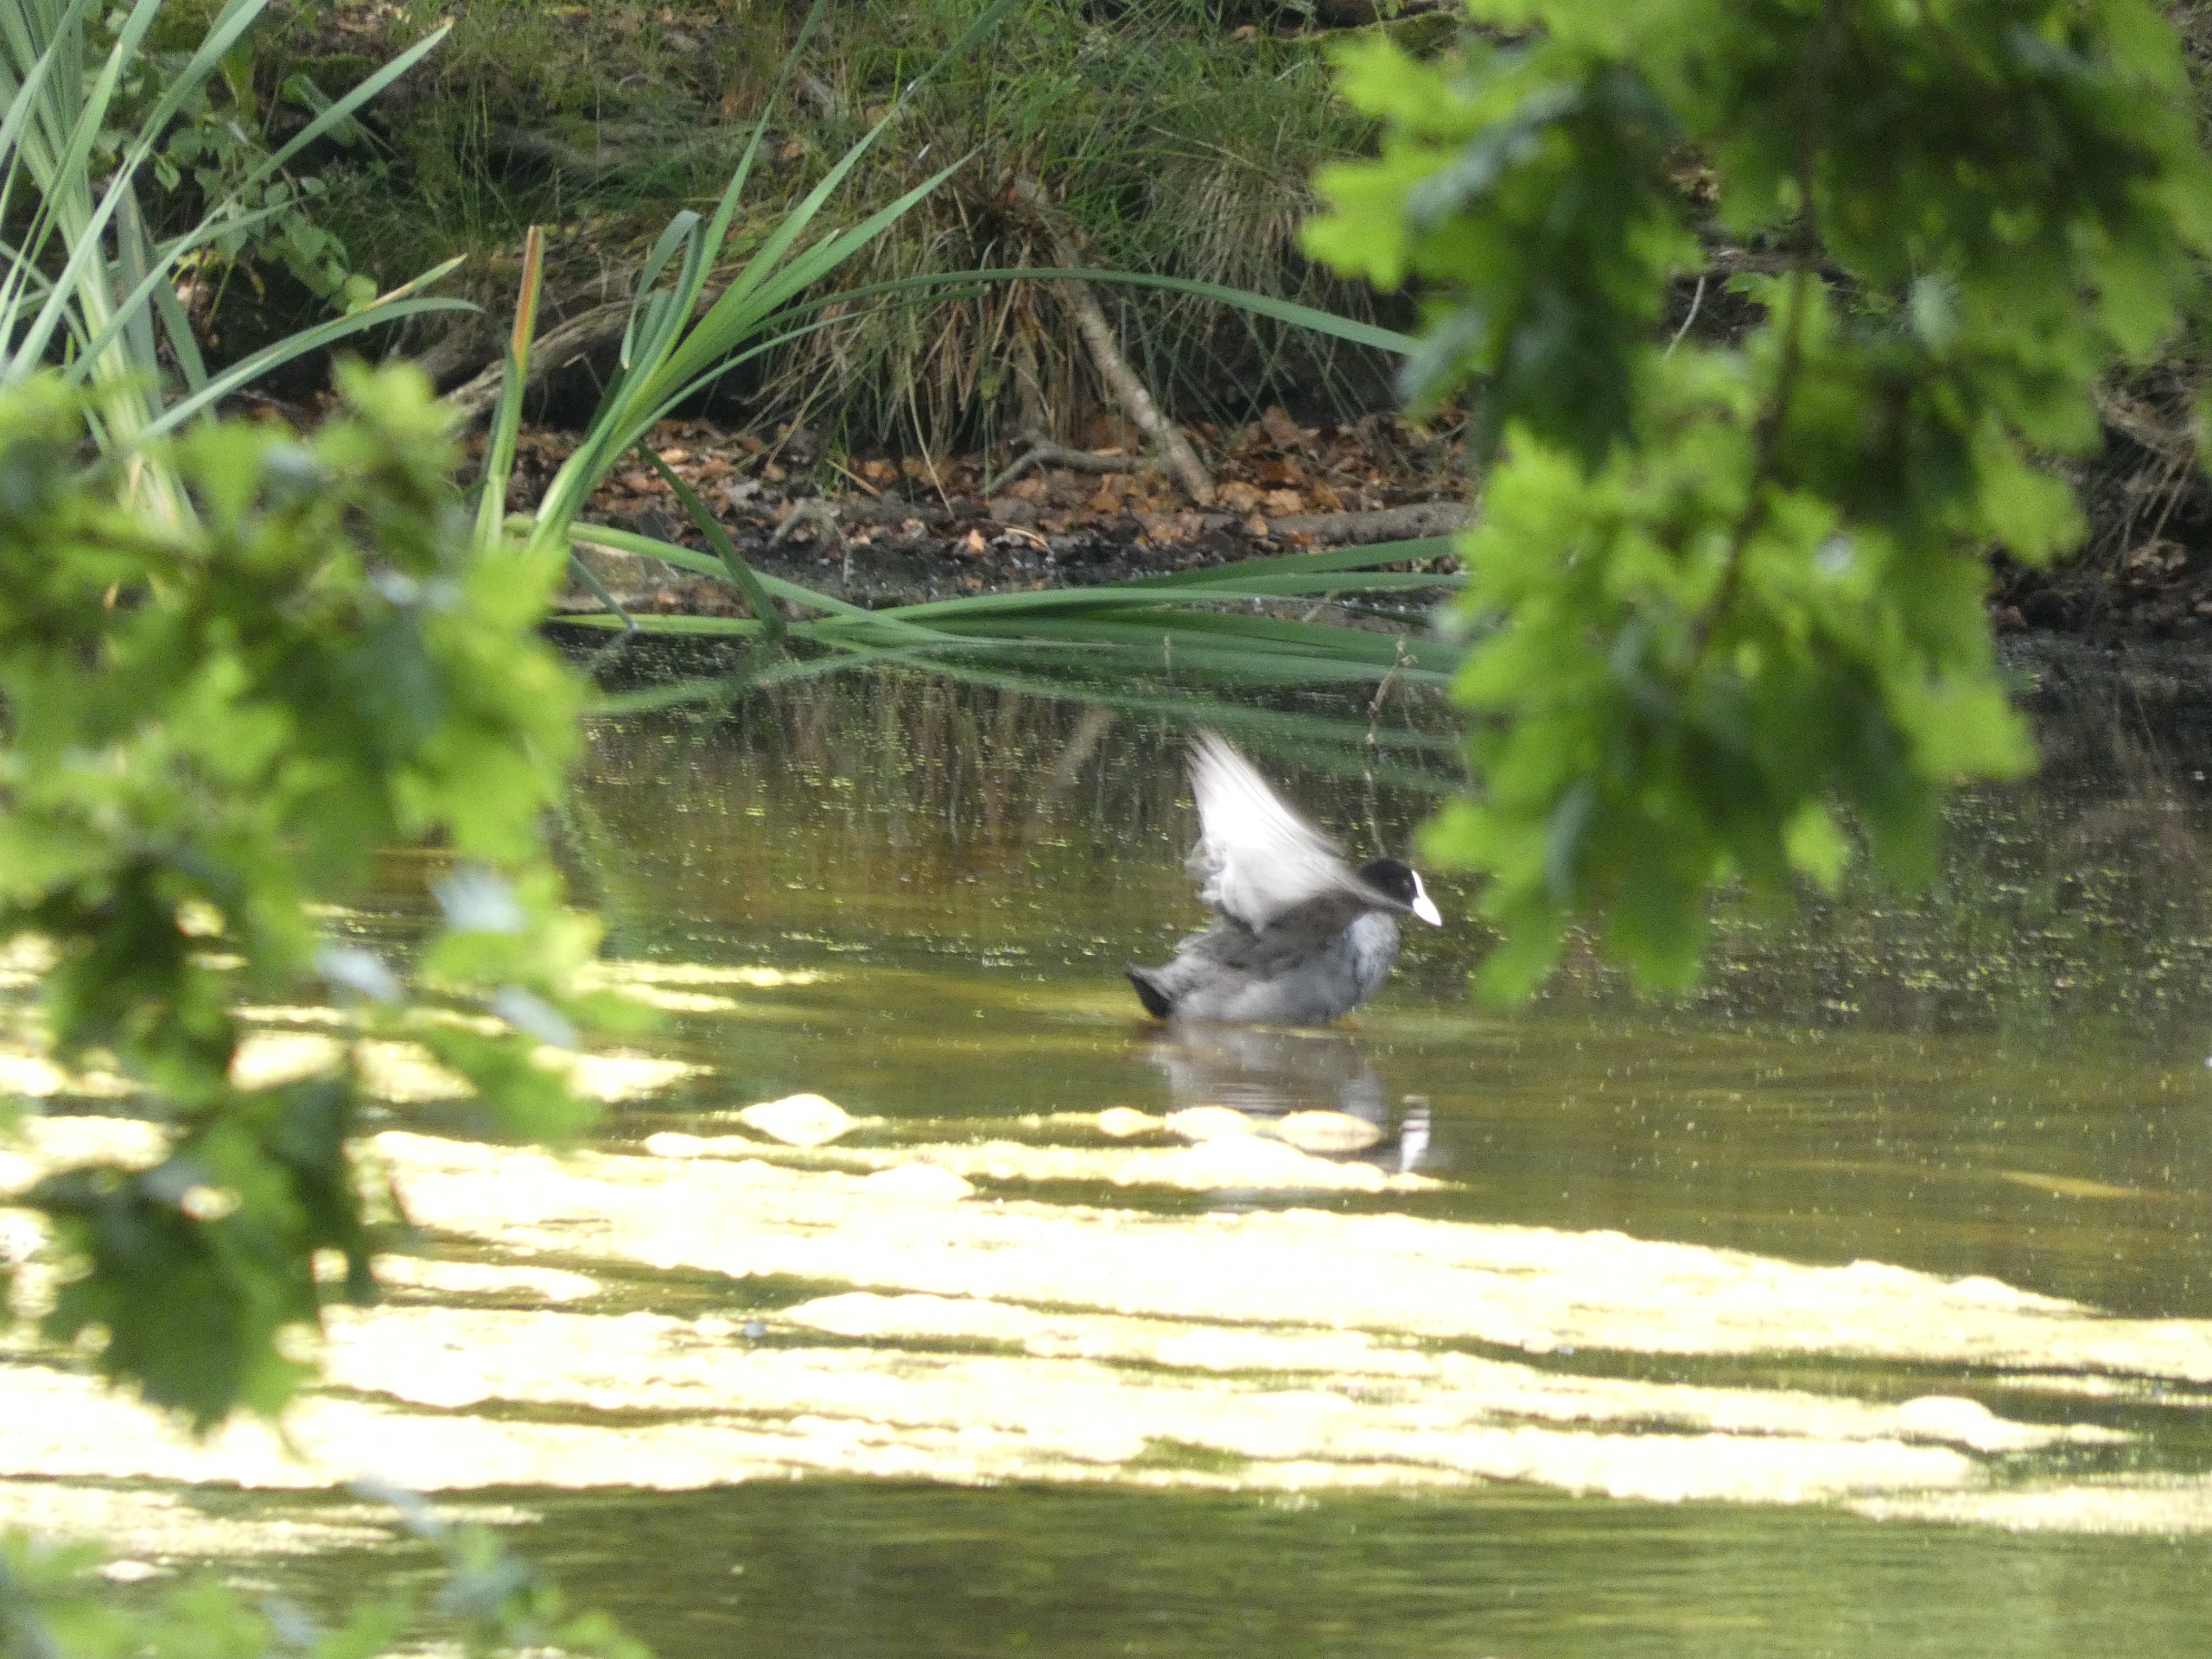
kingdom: Animalia
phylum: Chordata
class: Aves
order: Gruiformes
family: Rallidae
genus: Fulica
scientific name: Fulica atra
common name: Blishøne
